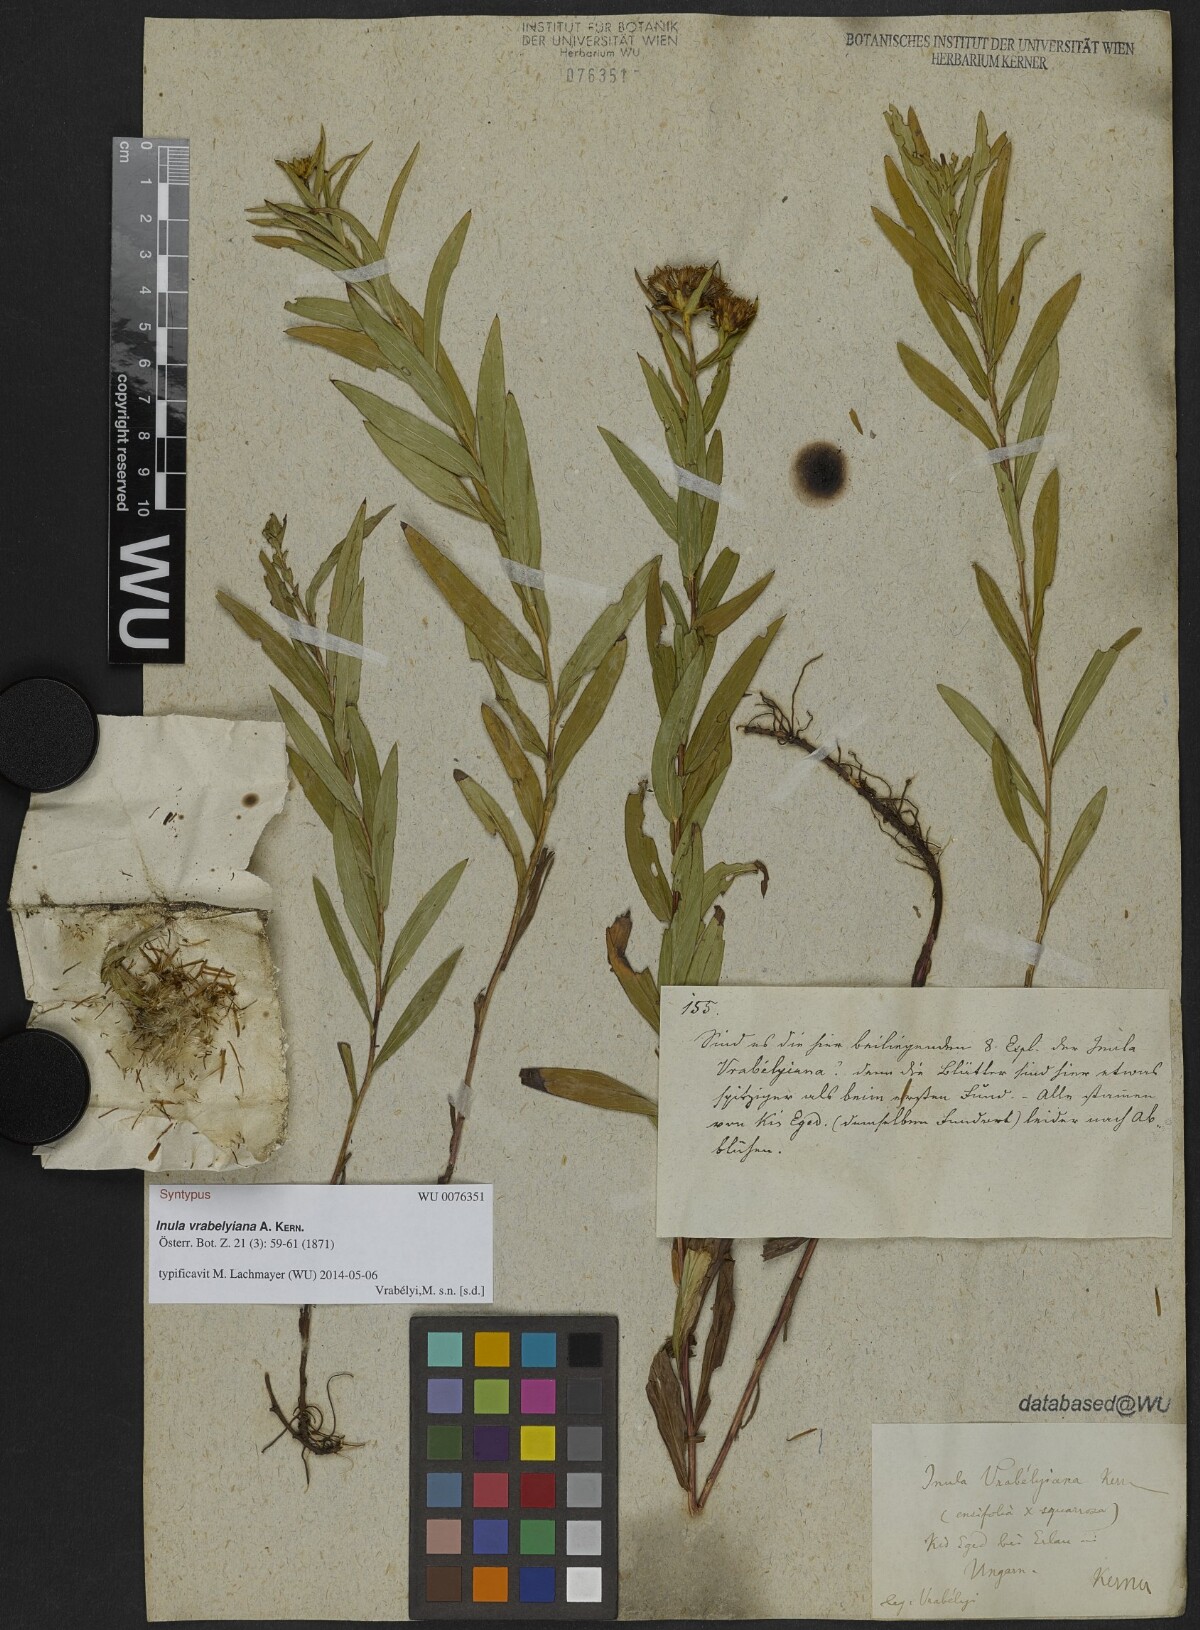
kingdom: Plantae
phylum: Tracheophyta
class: Magnoliopsida
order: Asterales
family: Asteraceae
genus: Pentanema
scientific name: Pentanema strictum
